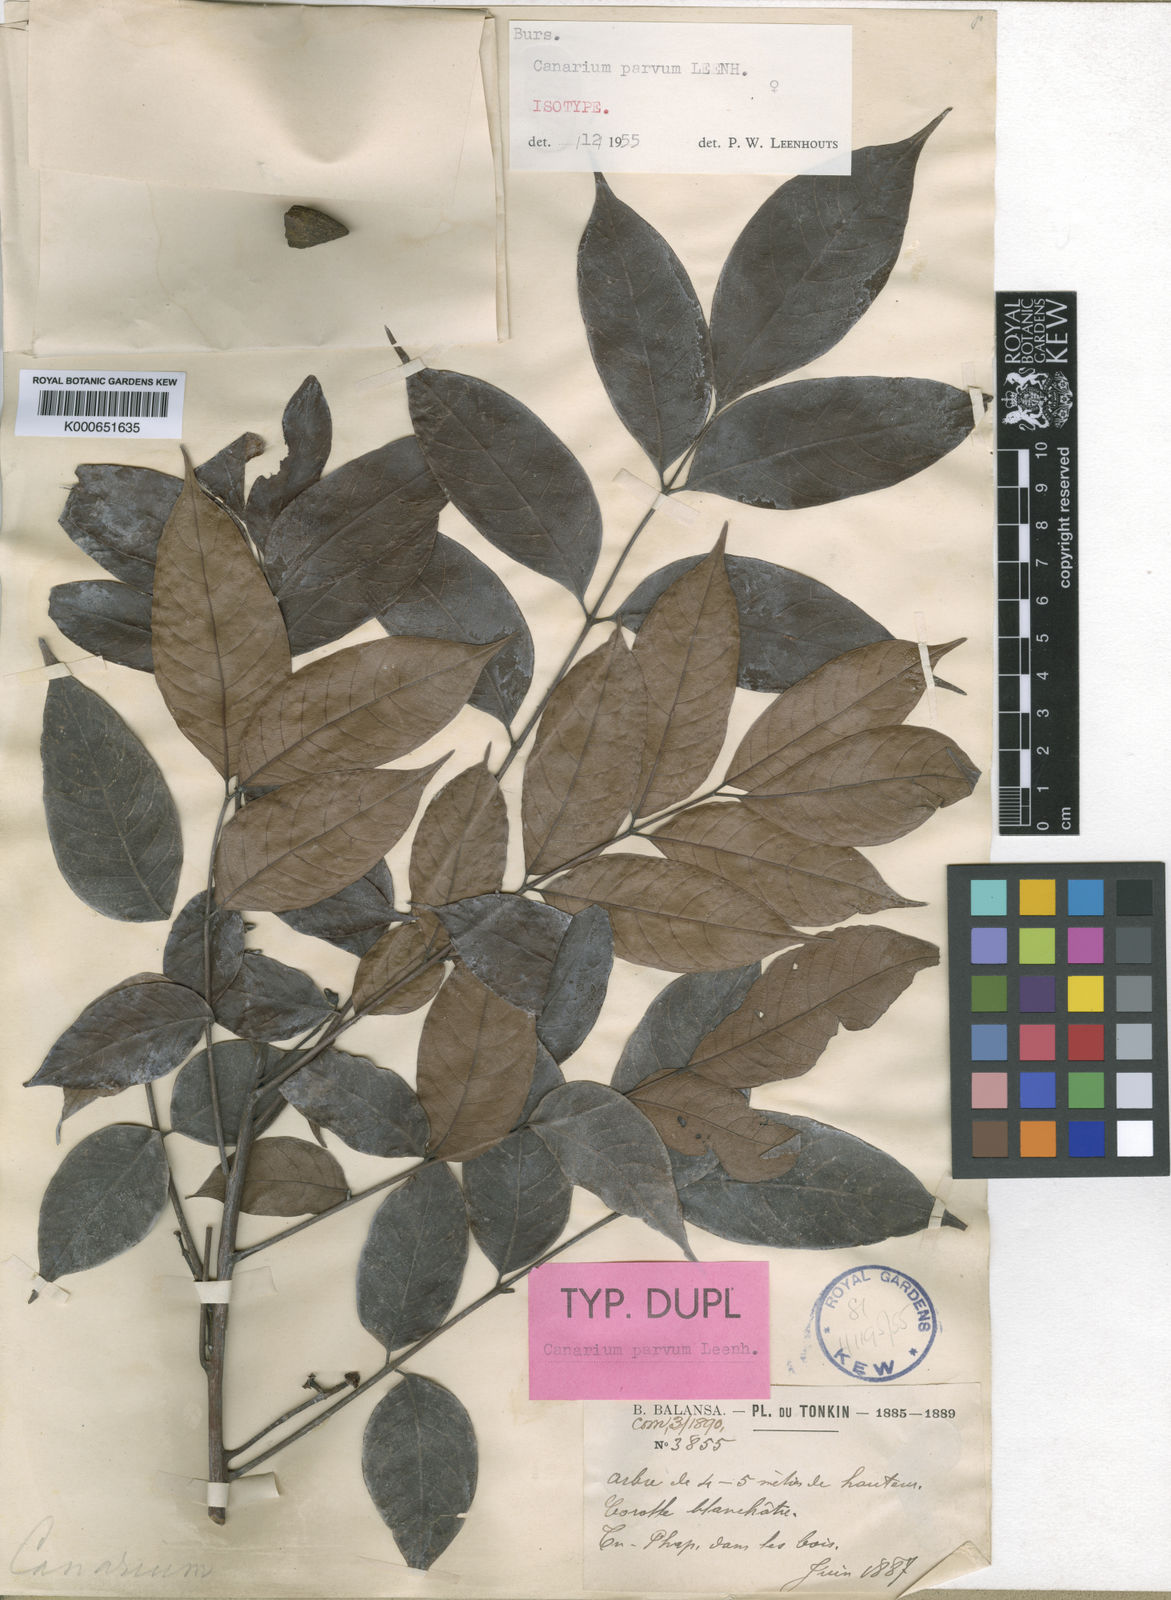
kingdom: Plantae
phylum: Tracheophyta
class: Magnoliopsida
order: Sapindales
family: Burseraceae
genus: Canarium
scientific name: Canarium parvum
